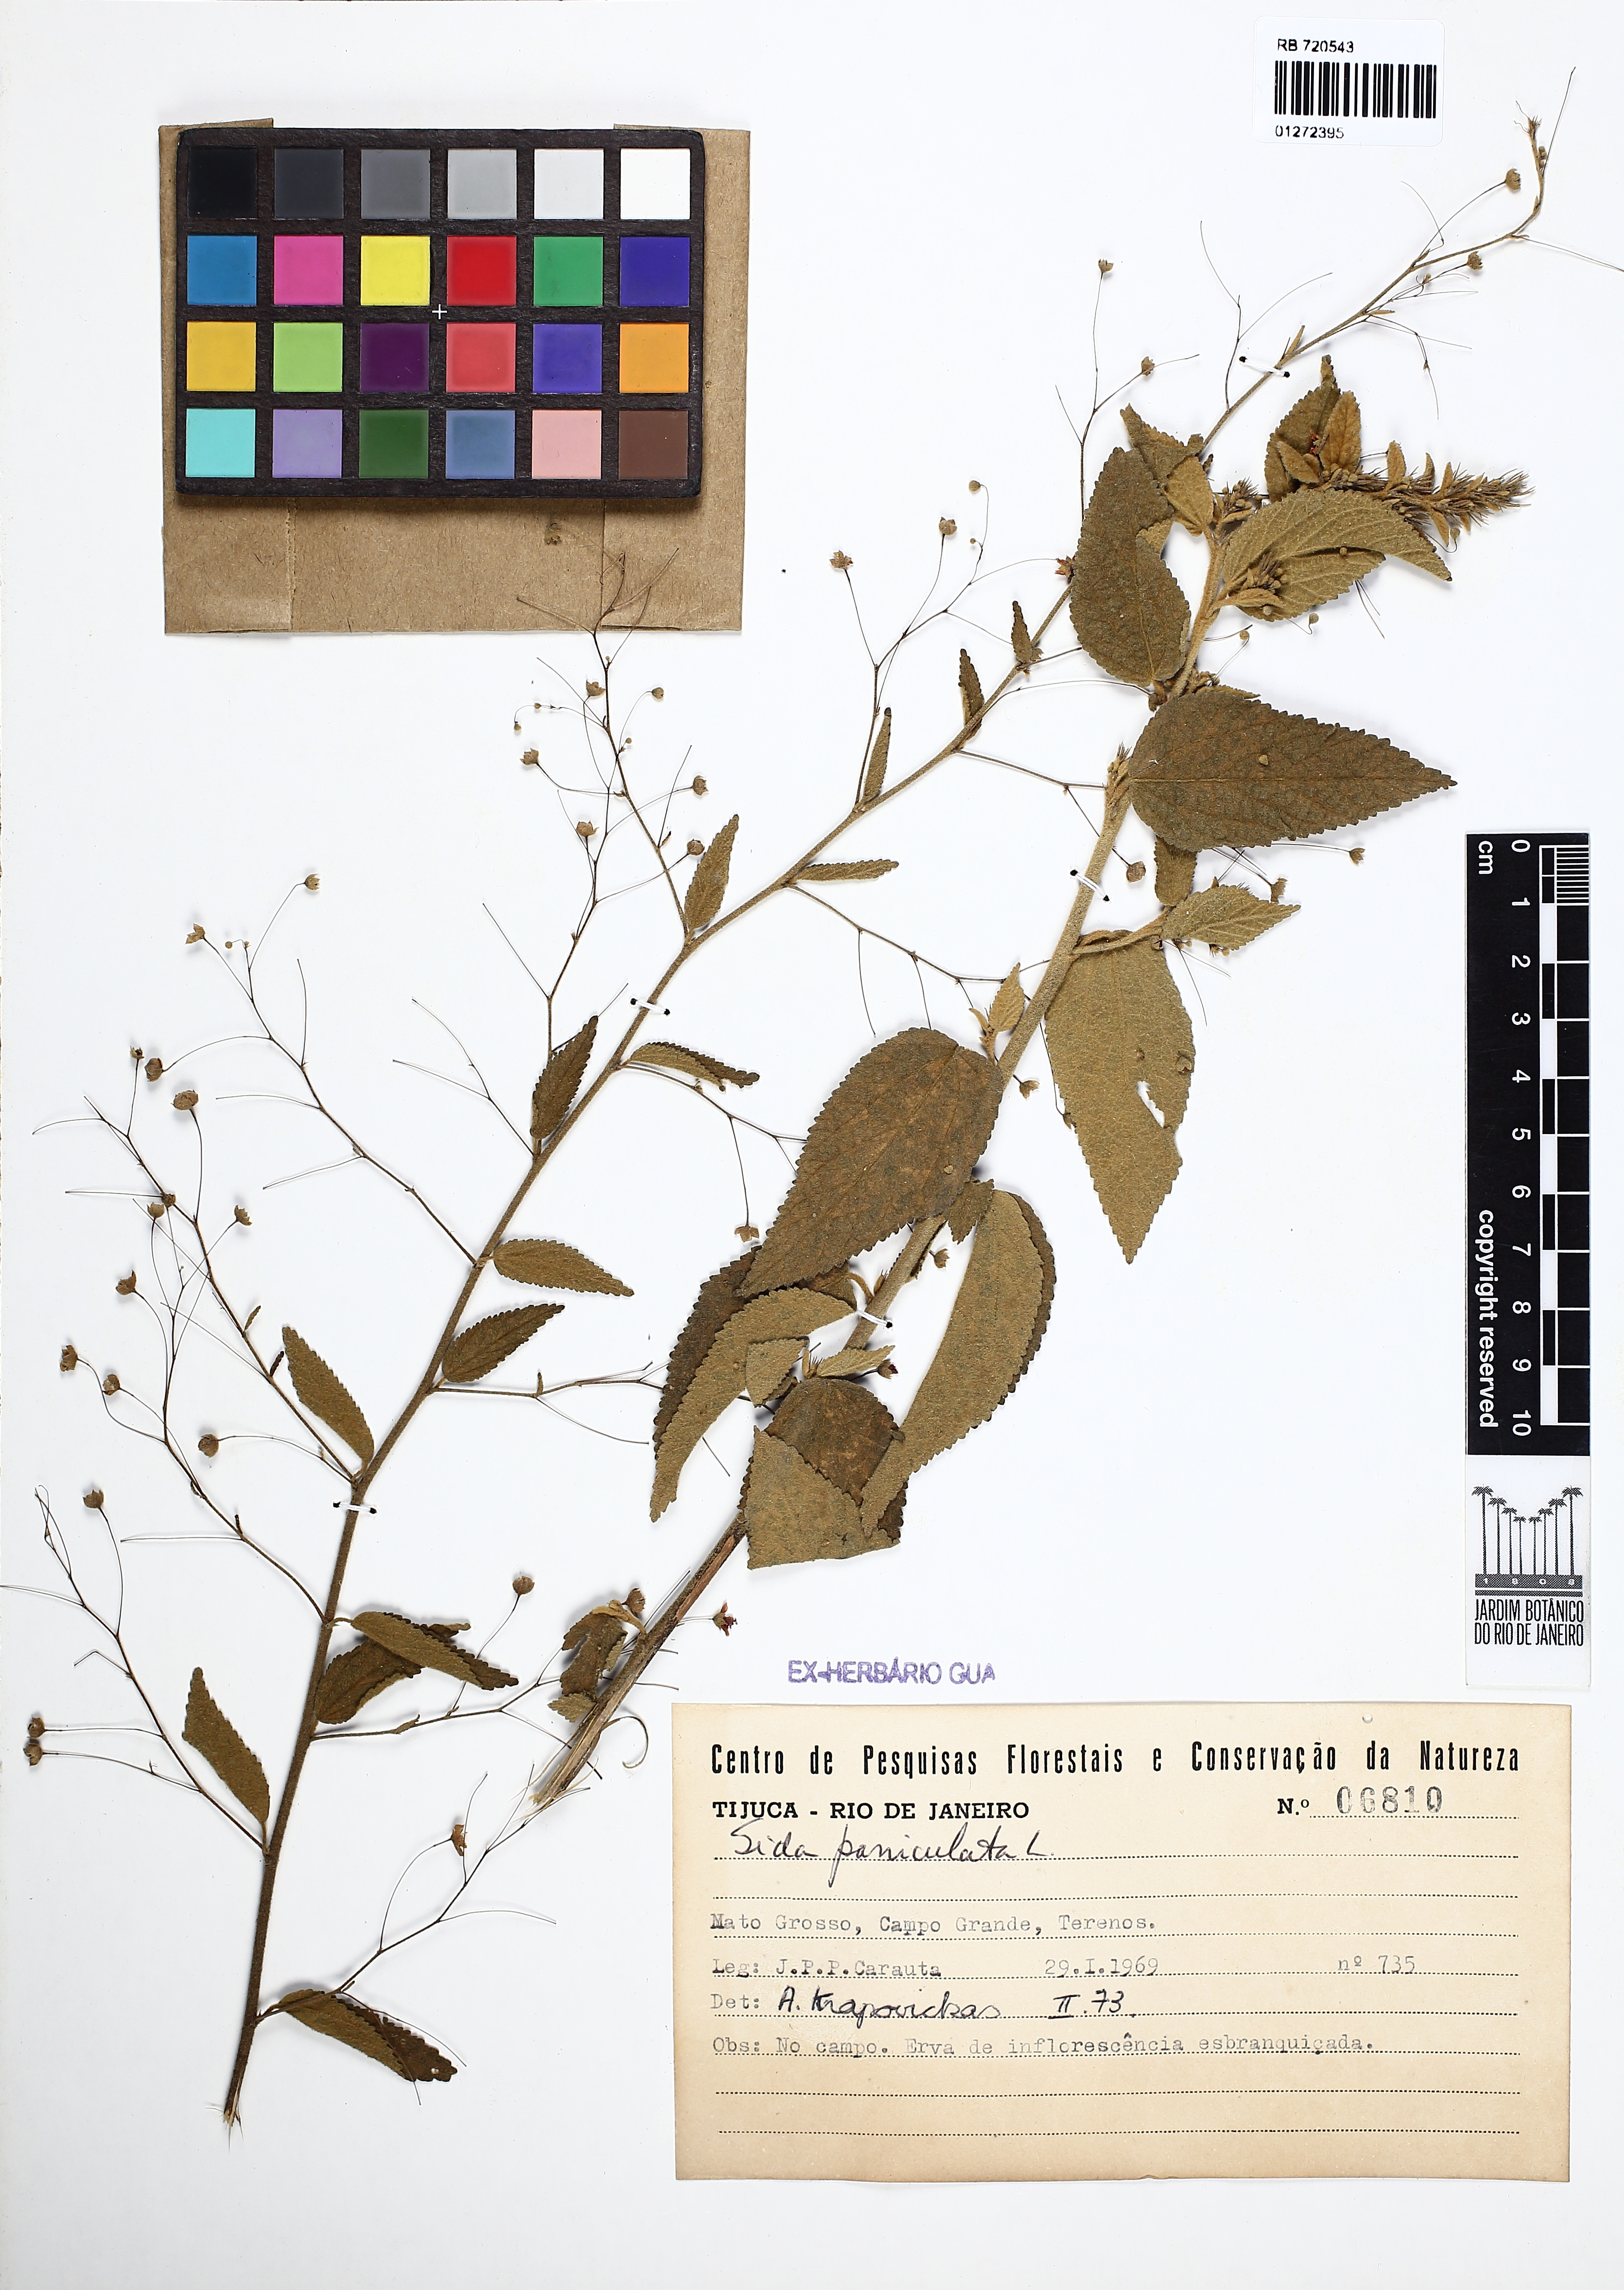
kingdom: Plantae
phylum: Tracheophyta
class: Magnoliopsida
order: Malvales
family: Malvaceae
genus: Sidastrum
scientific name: Sidastrum paniculatum
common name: Panicled sandmallow
